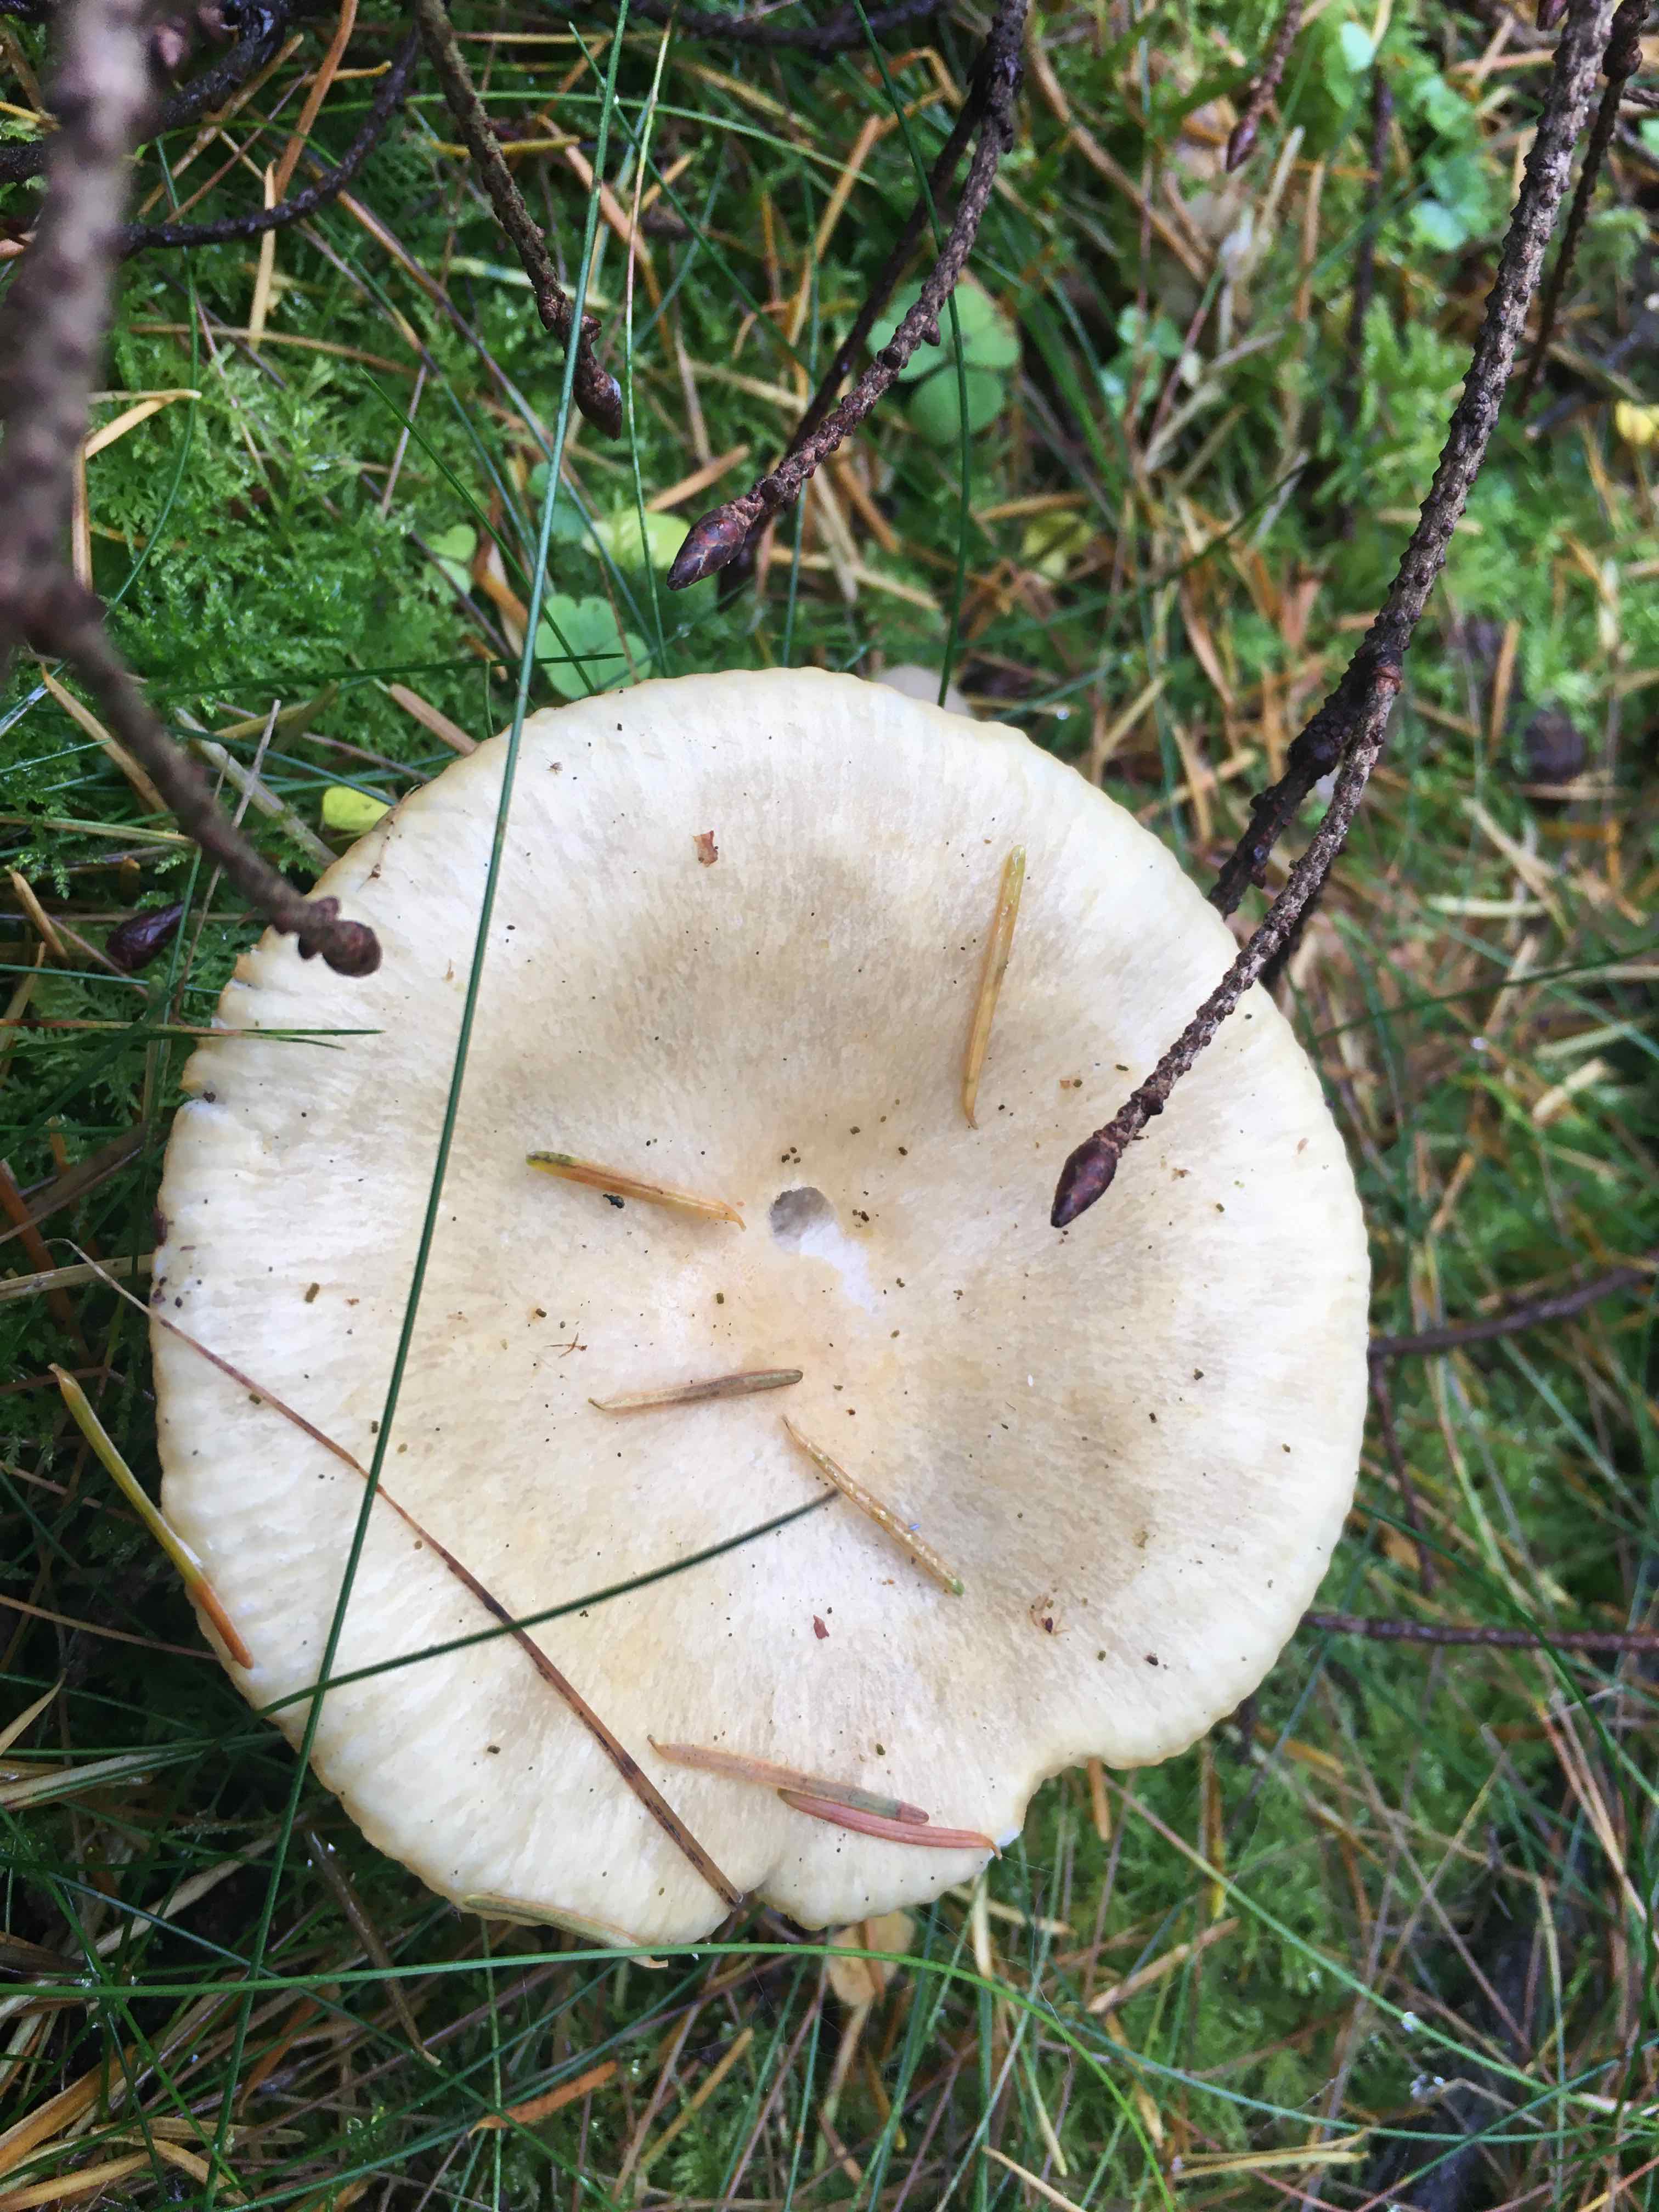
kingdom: Fungi
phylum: Basidiomycota
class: Agaricomycetes
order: Russulales
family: Russulaceae
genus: Russula
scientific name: Russula ochroleuca
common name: okkergul skørhat
